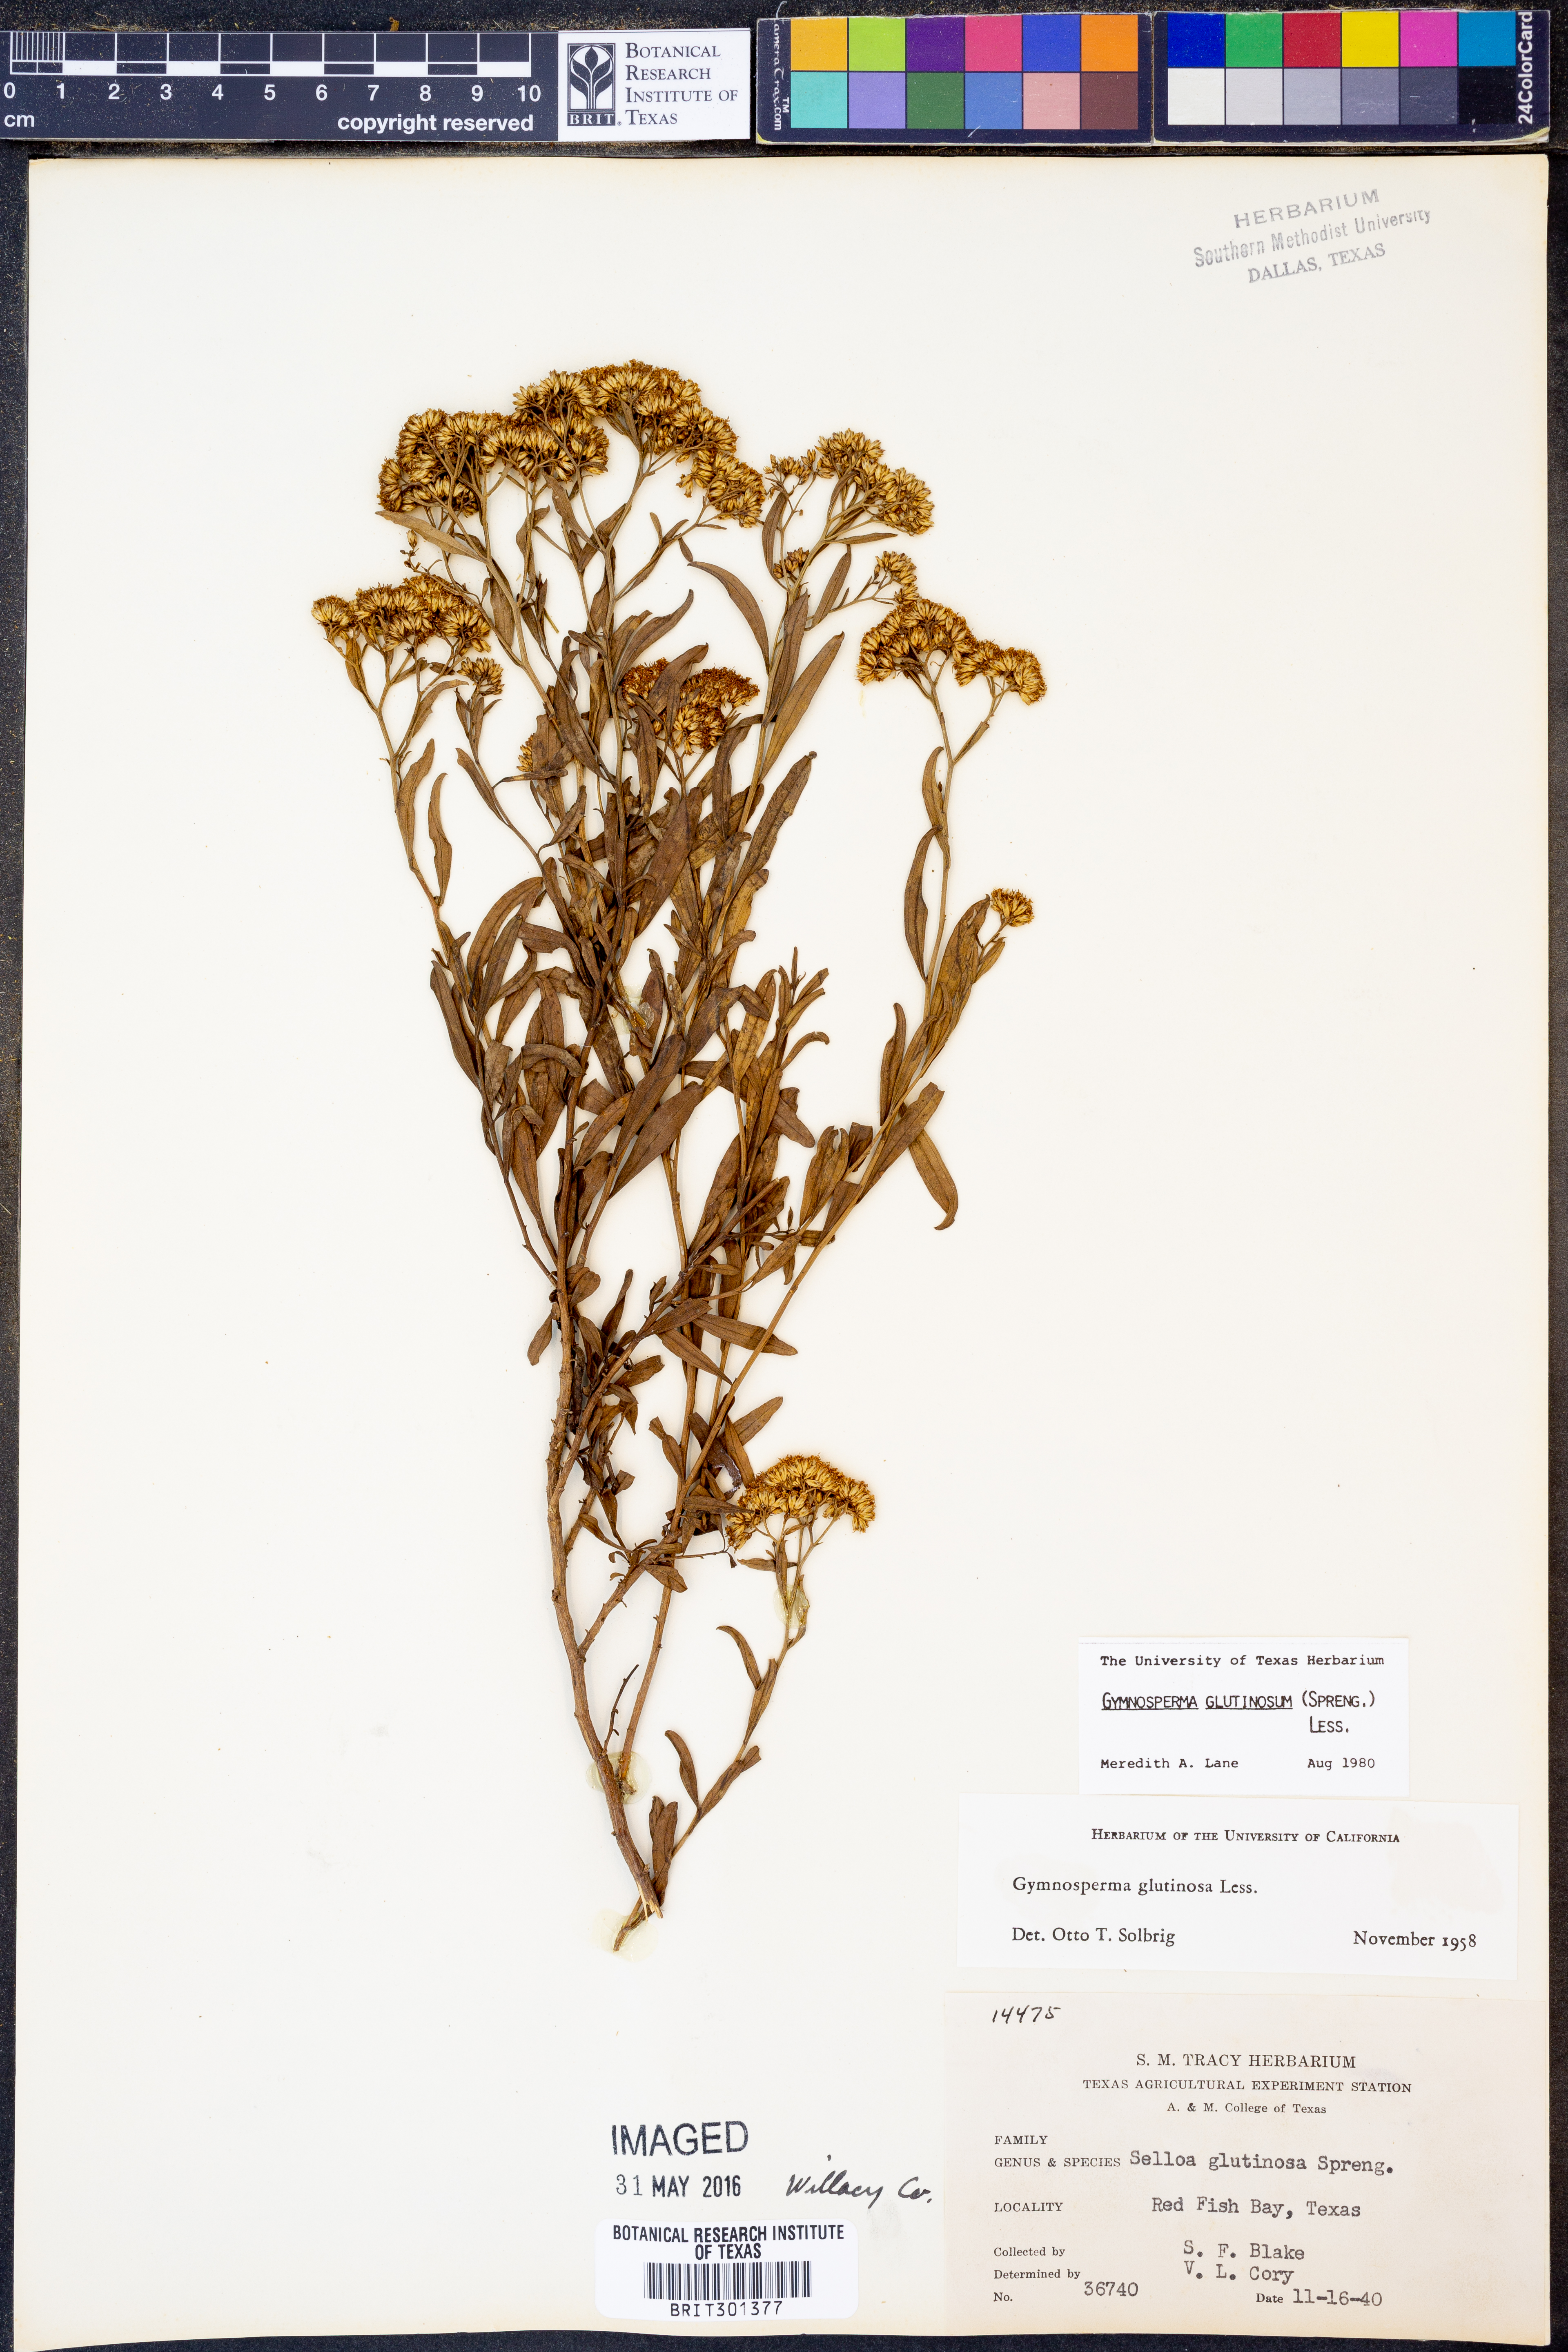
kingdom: Plantae
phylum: Tracheophyta
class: Magnoliopsida
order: Asterales
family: Asteraceae
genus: Gymnosperma
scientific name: Gymnosperma glutinosum
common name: Gumhead
